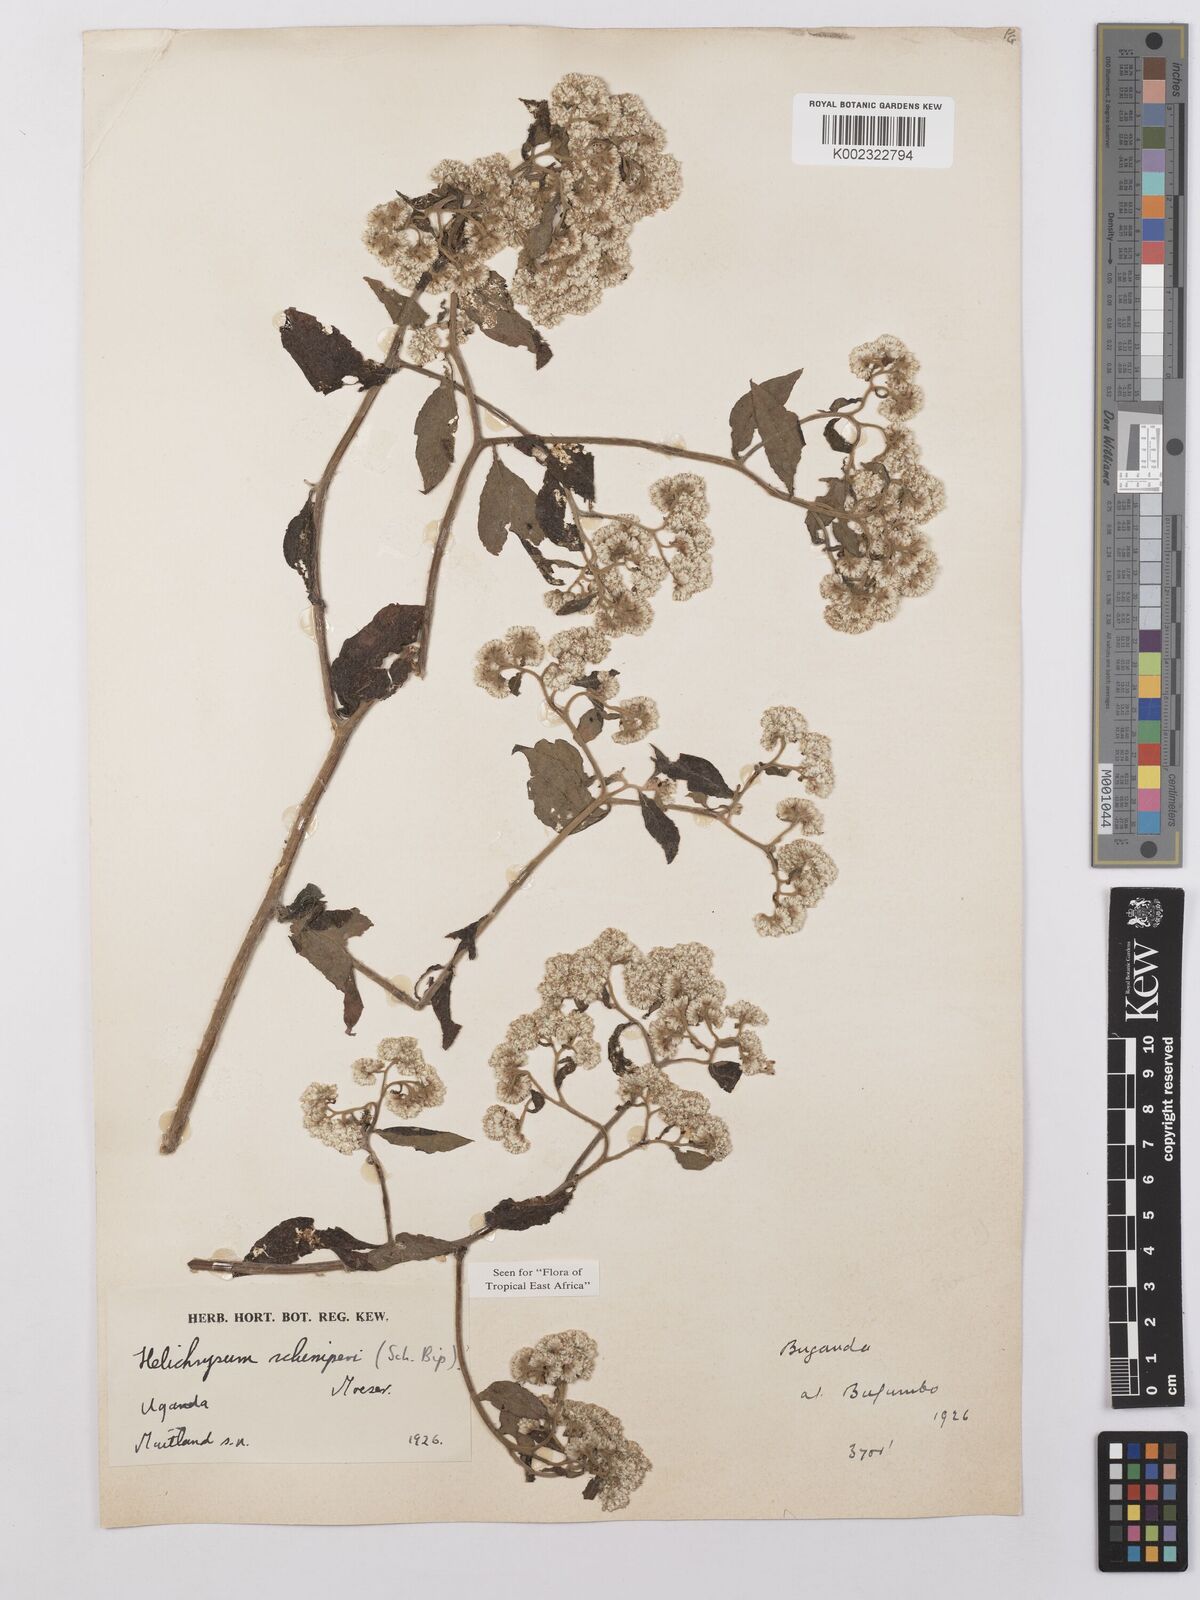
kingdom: Plantae
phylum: Tracheophyta
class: Magnoliopsida
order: Asterales
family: Asteraceae
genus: Helichrysum
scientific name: Helichrysum schimperi
